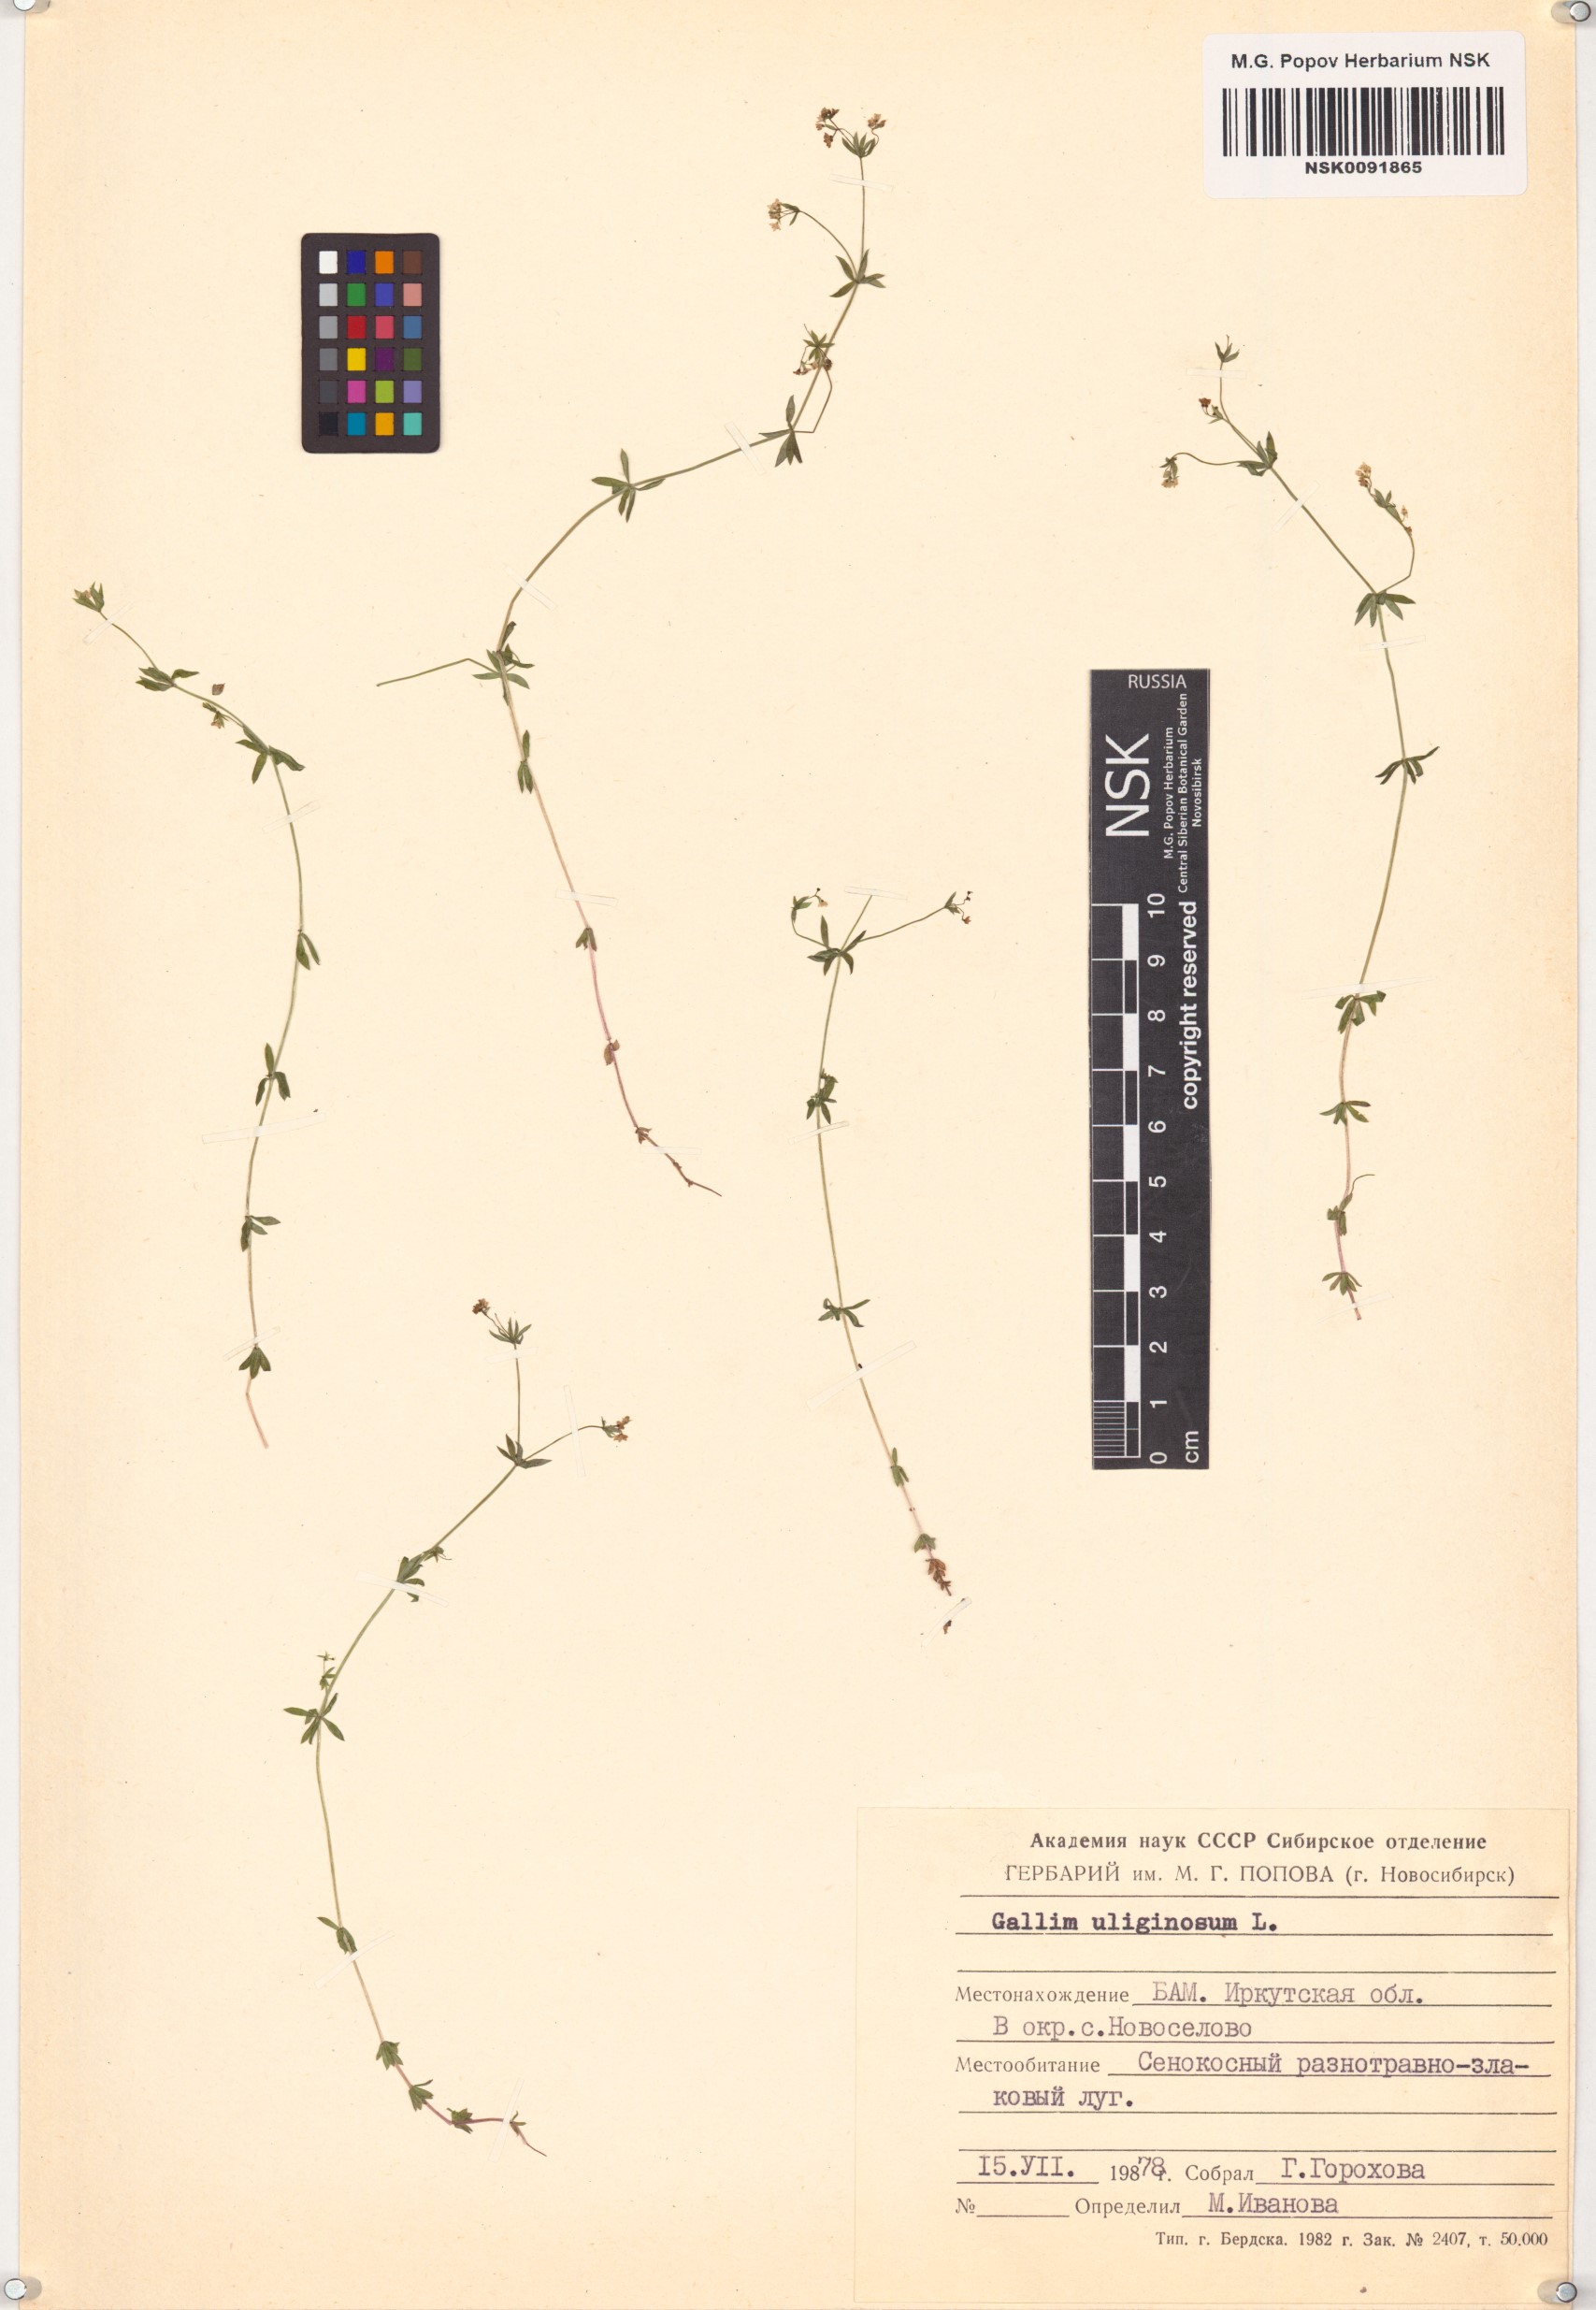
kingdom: Plantae
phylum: Tracheophyta
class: Magnoliopsida
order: Gentianales
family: Rubiaceae
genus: Galium
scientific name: Galium uliginosum
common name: Fen bedstraw
